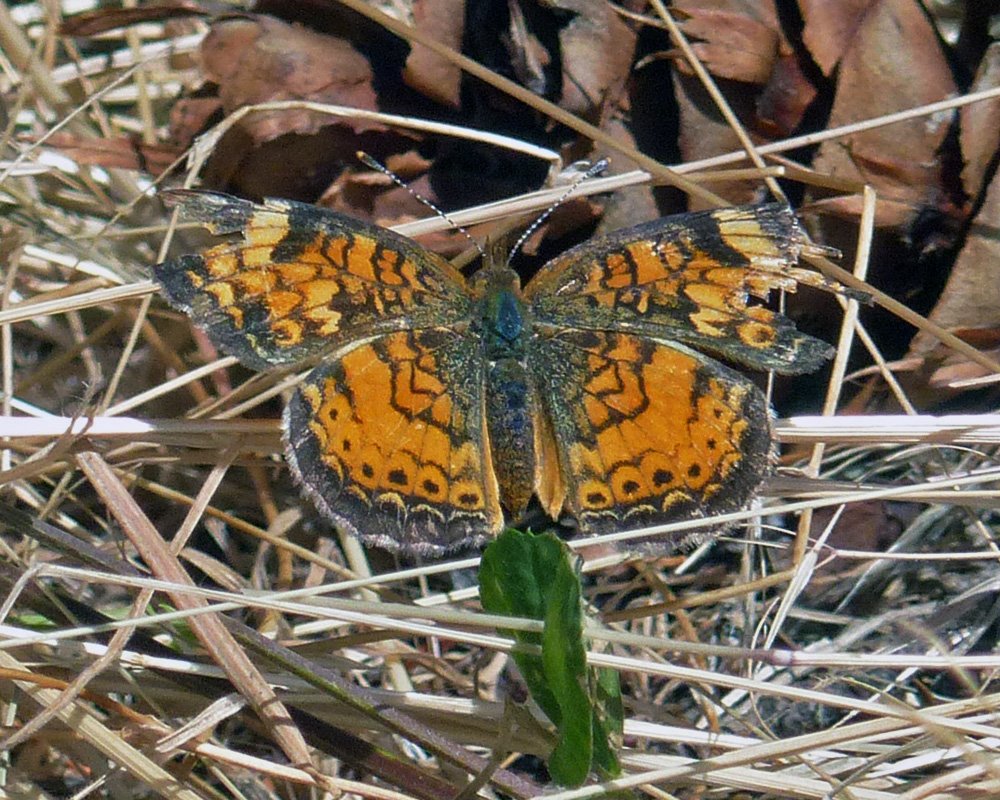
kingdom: Animalia
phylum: Arthropoda
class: Insecta
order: Lepidoptera
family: Nymphalidae
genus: Phyciodes
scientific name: Phyciodes tharos
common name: Northern Crescent
